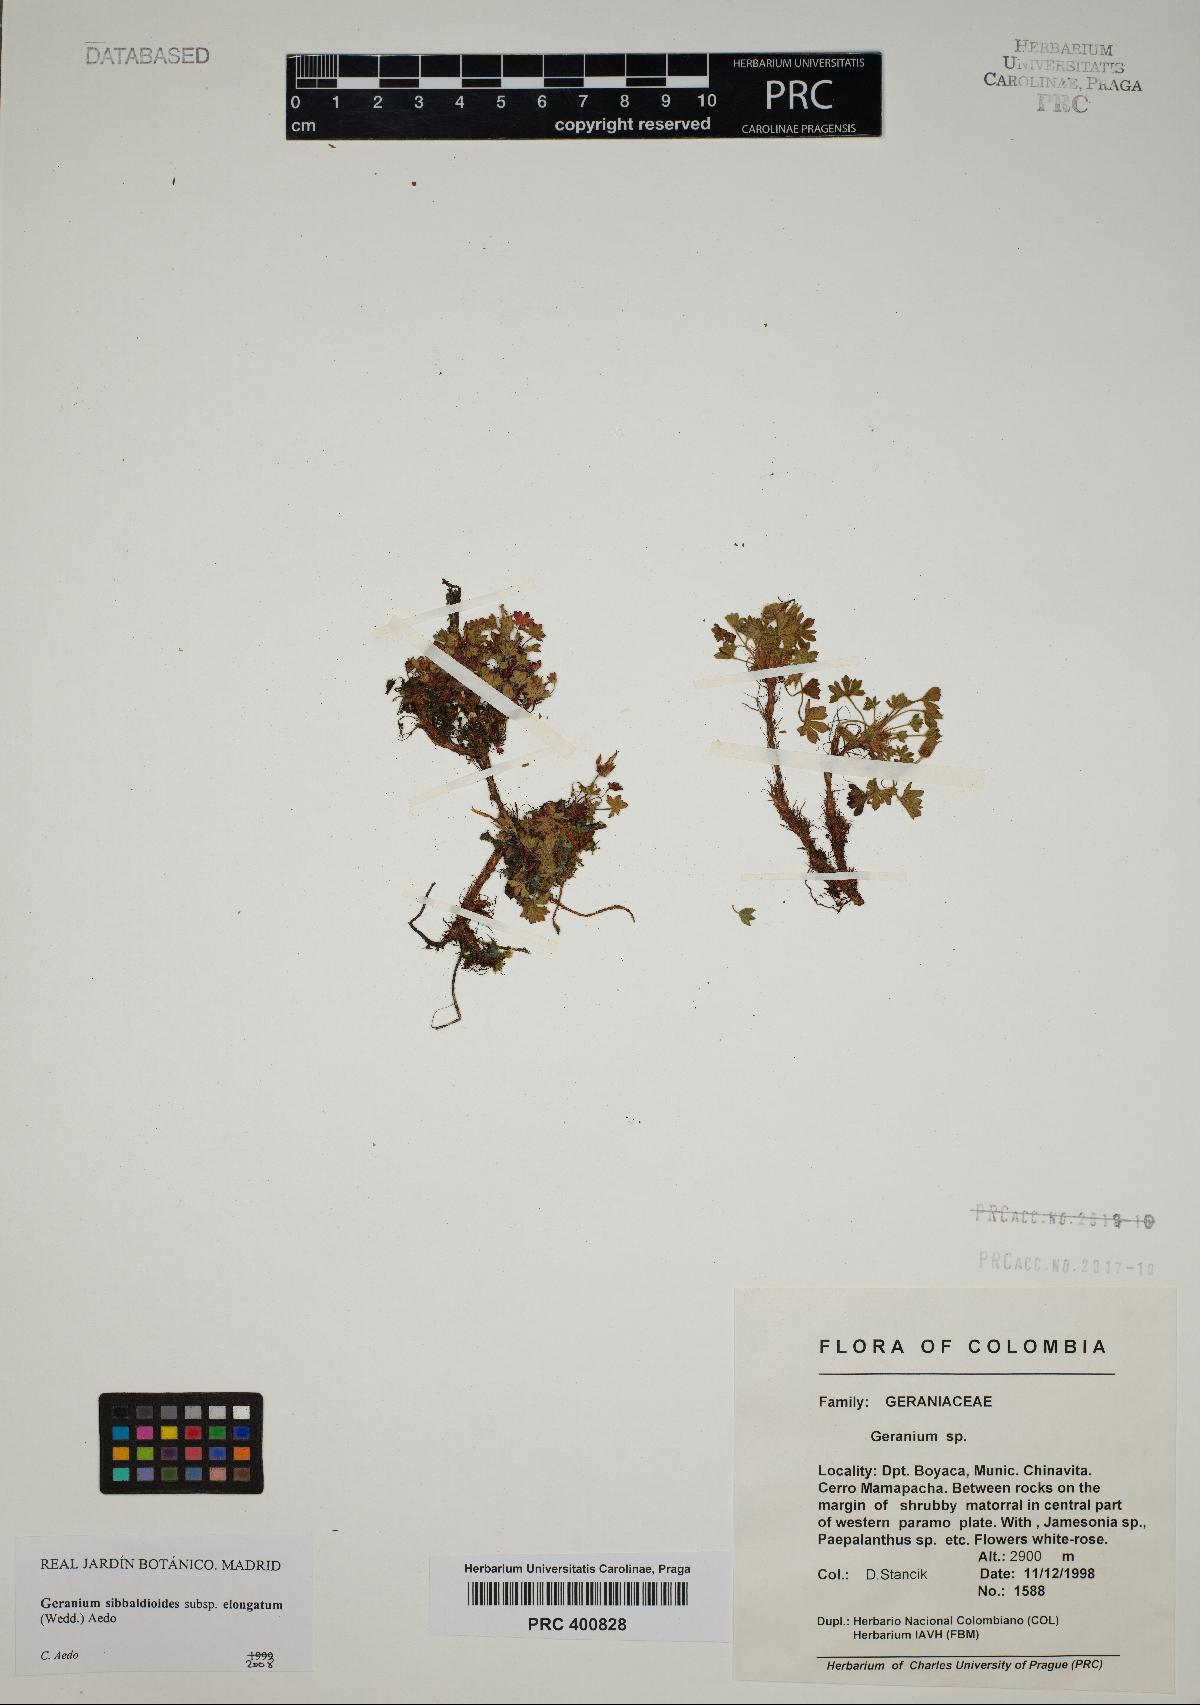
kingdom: Plantae
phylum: Tracheophyta
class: Magnoliopsida
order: Geraniales
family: Geraniaceae
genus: Geranium
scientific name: Geranium sibbaldioides
